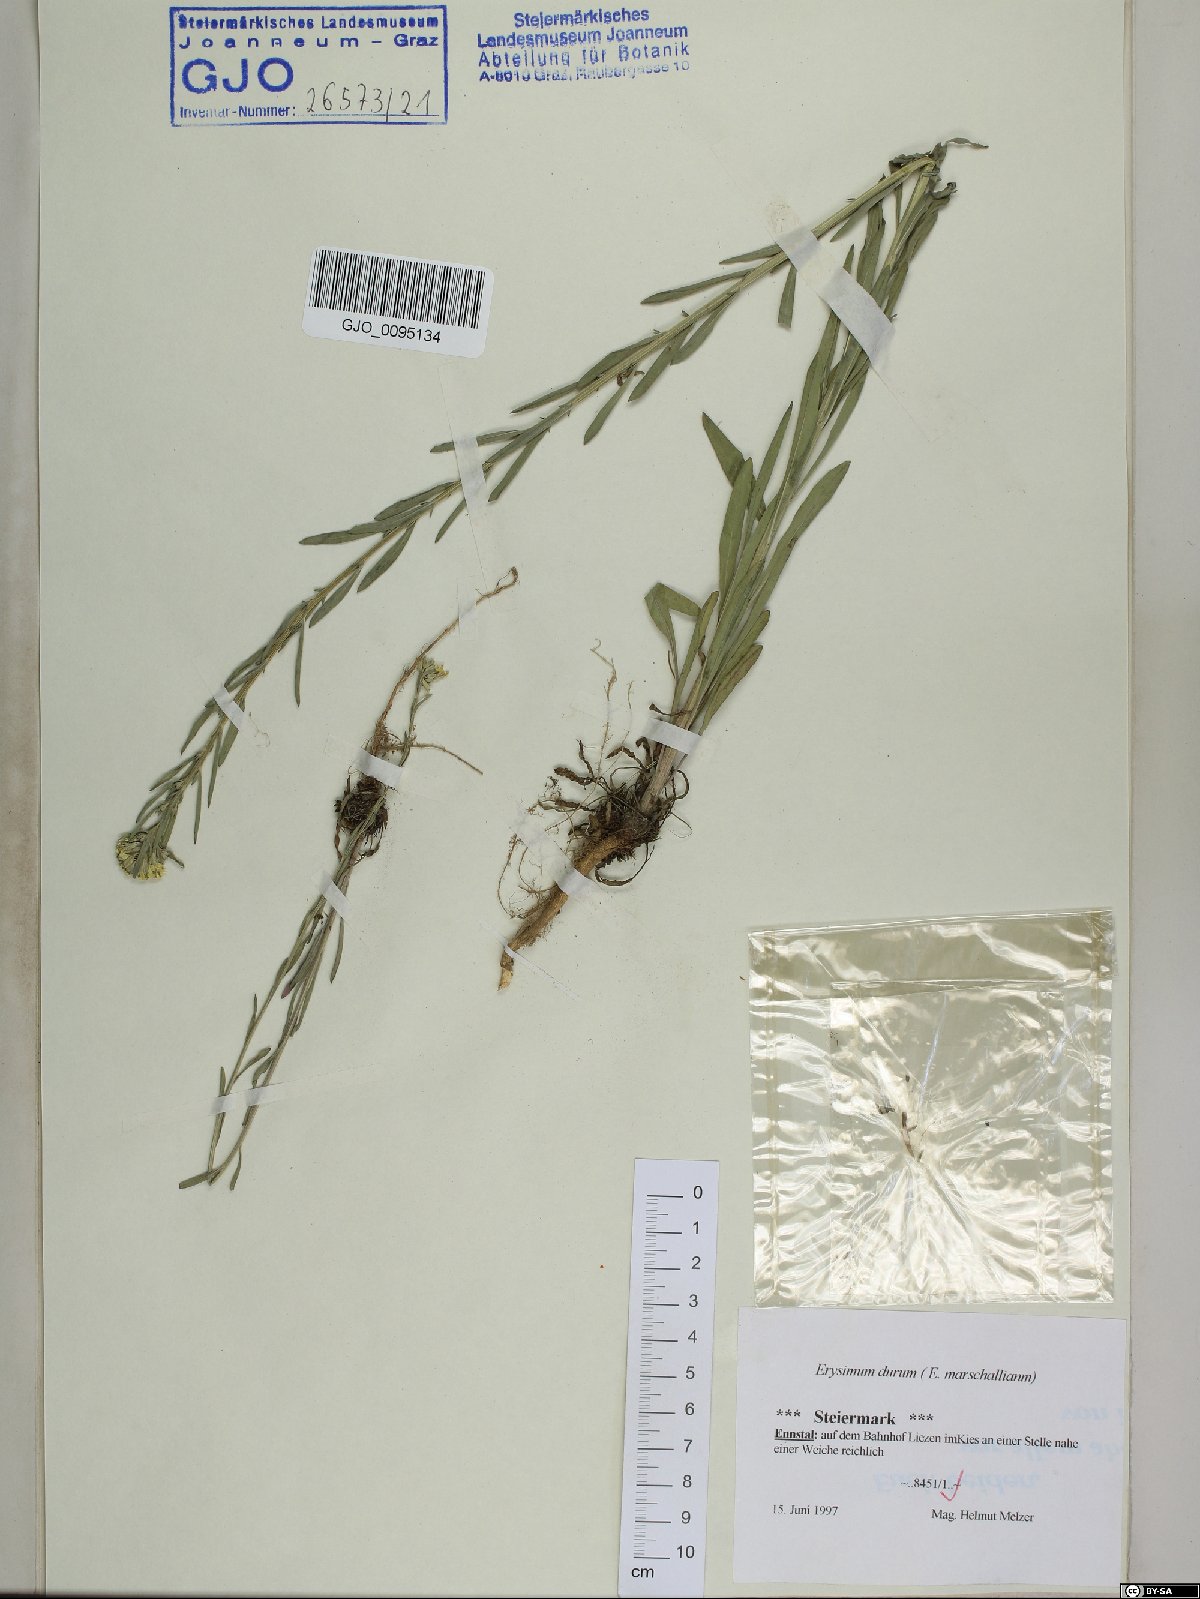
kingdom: Plantae
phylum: Tracheophyta
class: Magnoliopsida
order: Brassicales
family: Brassicaceae
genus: Erysimum
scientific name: Erysimum marschallianum
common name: Hard wallflower
